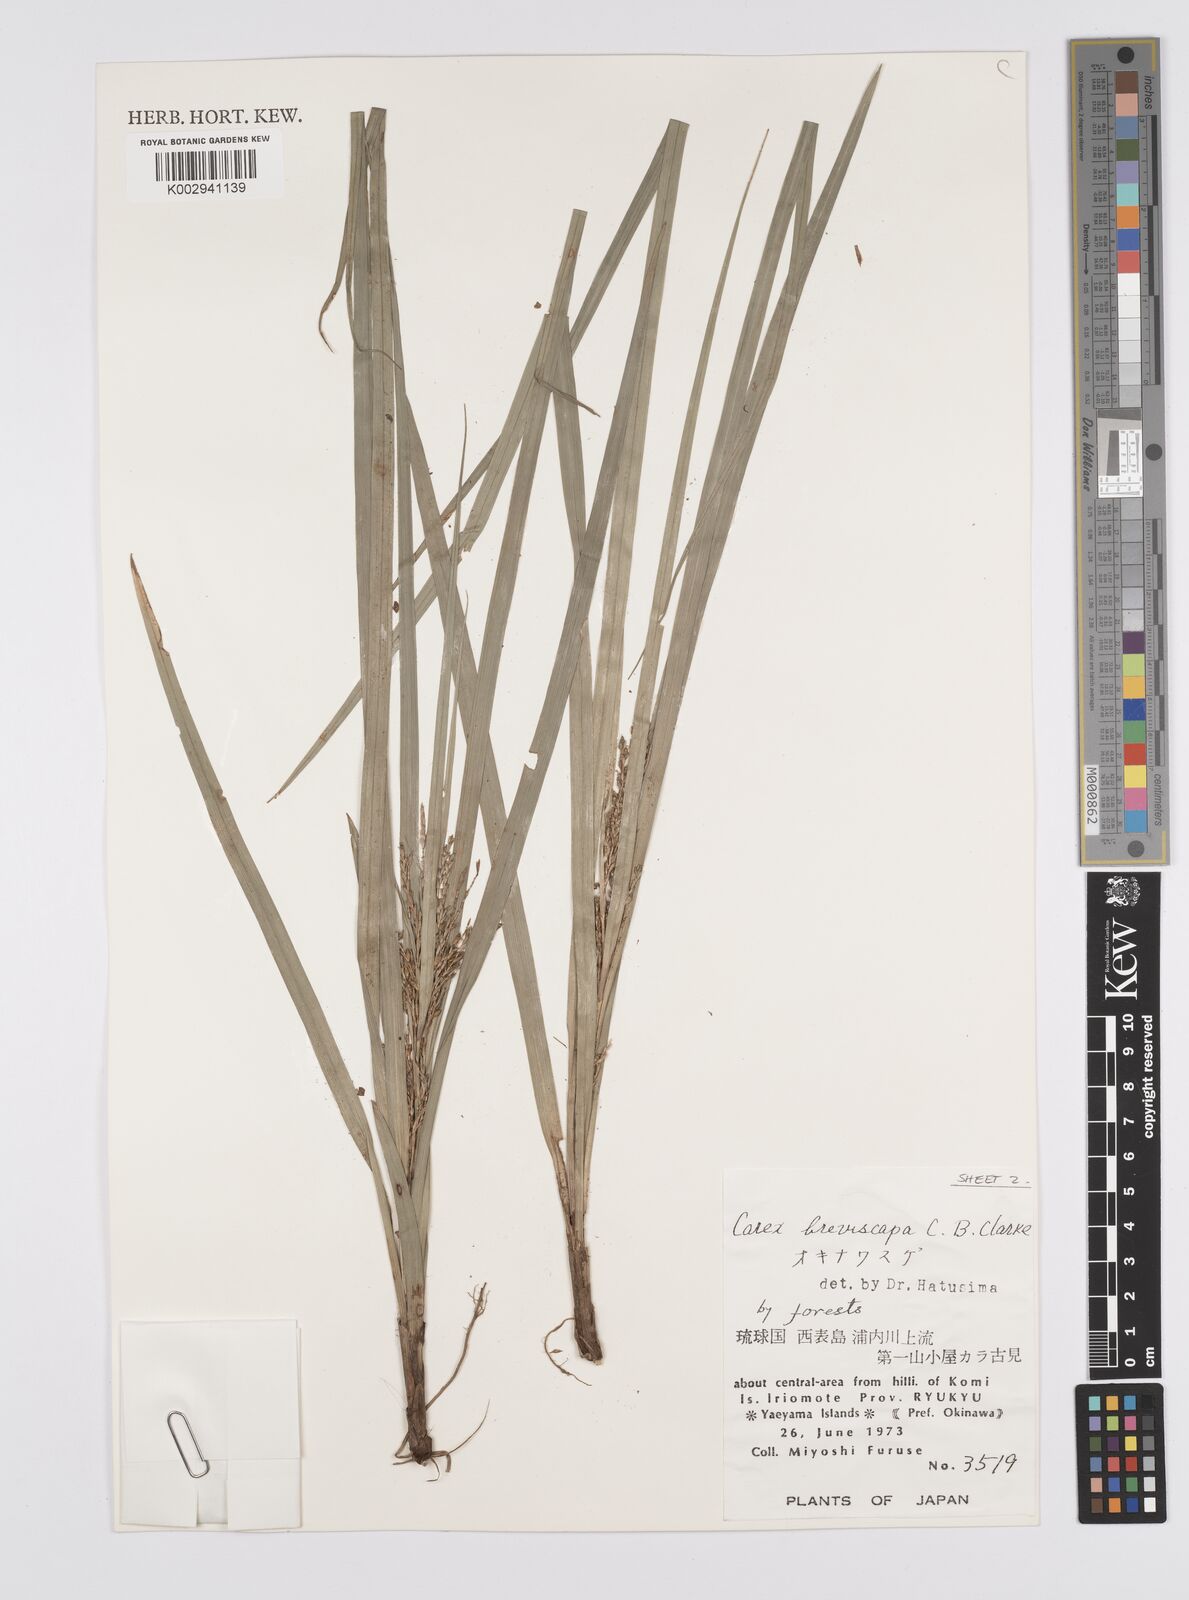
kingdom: Plantae
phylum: Tracheophyta
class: Liliopsida
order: Poales
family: Cyperaceae
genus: Carex
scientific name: Carex breviscapa
